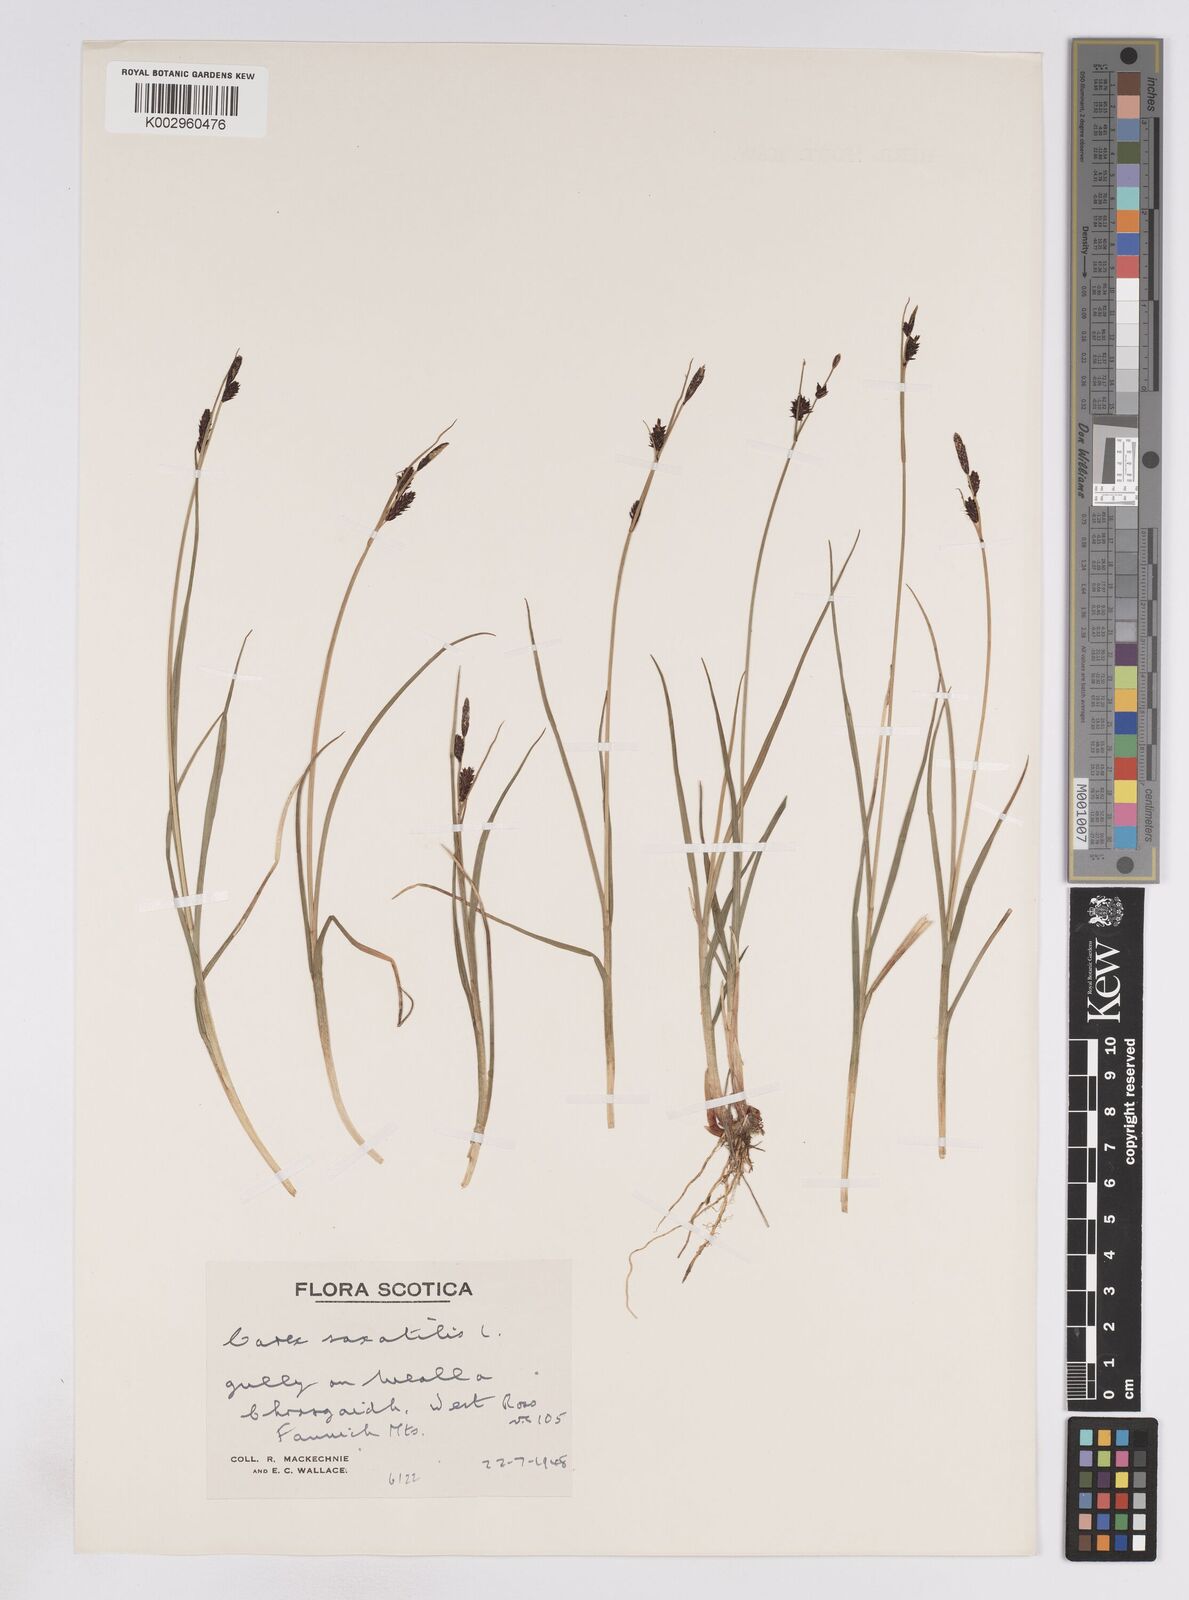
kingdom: Plantae
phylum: Tracheophyta
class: Liliopsida
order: Poales
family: Cyperaceae
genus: Carex
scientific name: Carex saxatilis
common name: Russet sedge
